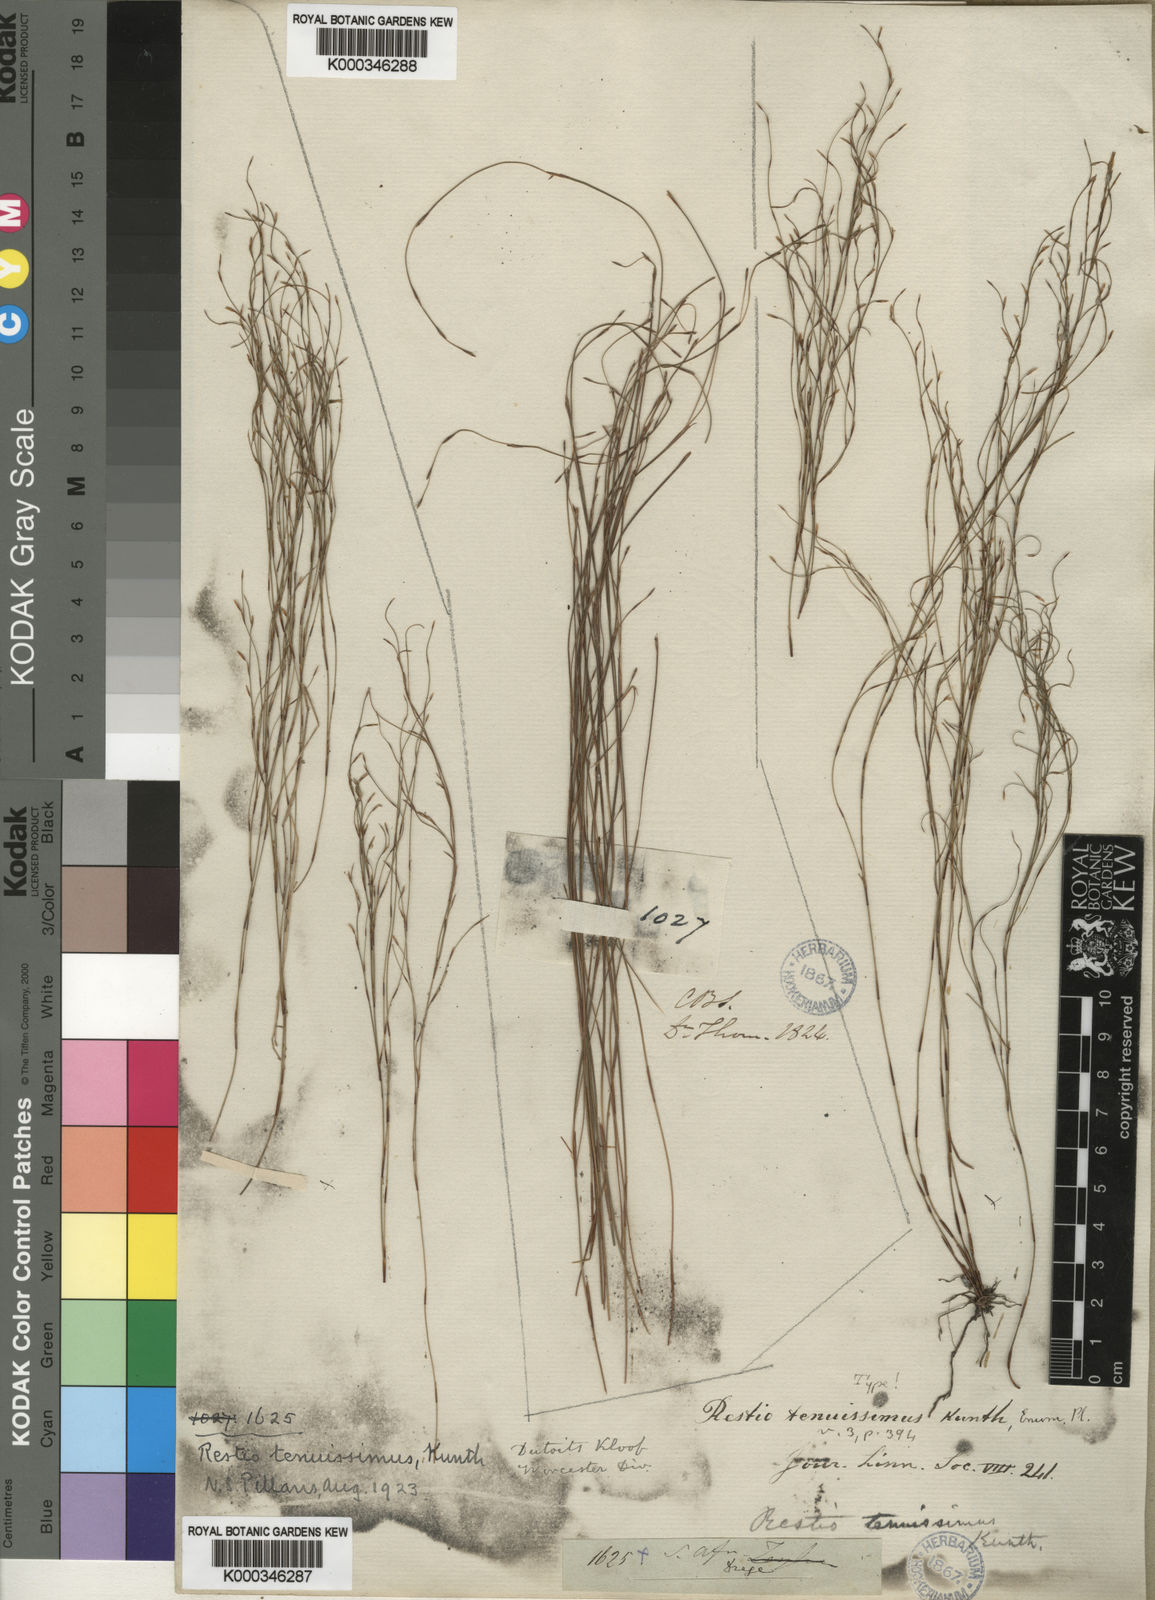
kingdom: Plantae
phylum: Tracheophyta
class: Liliopsida
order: Poales
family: Restionaceae
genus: Restio
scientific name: Restio tenuissimus
